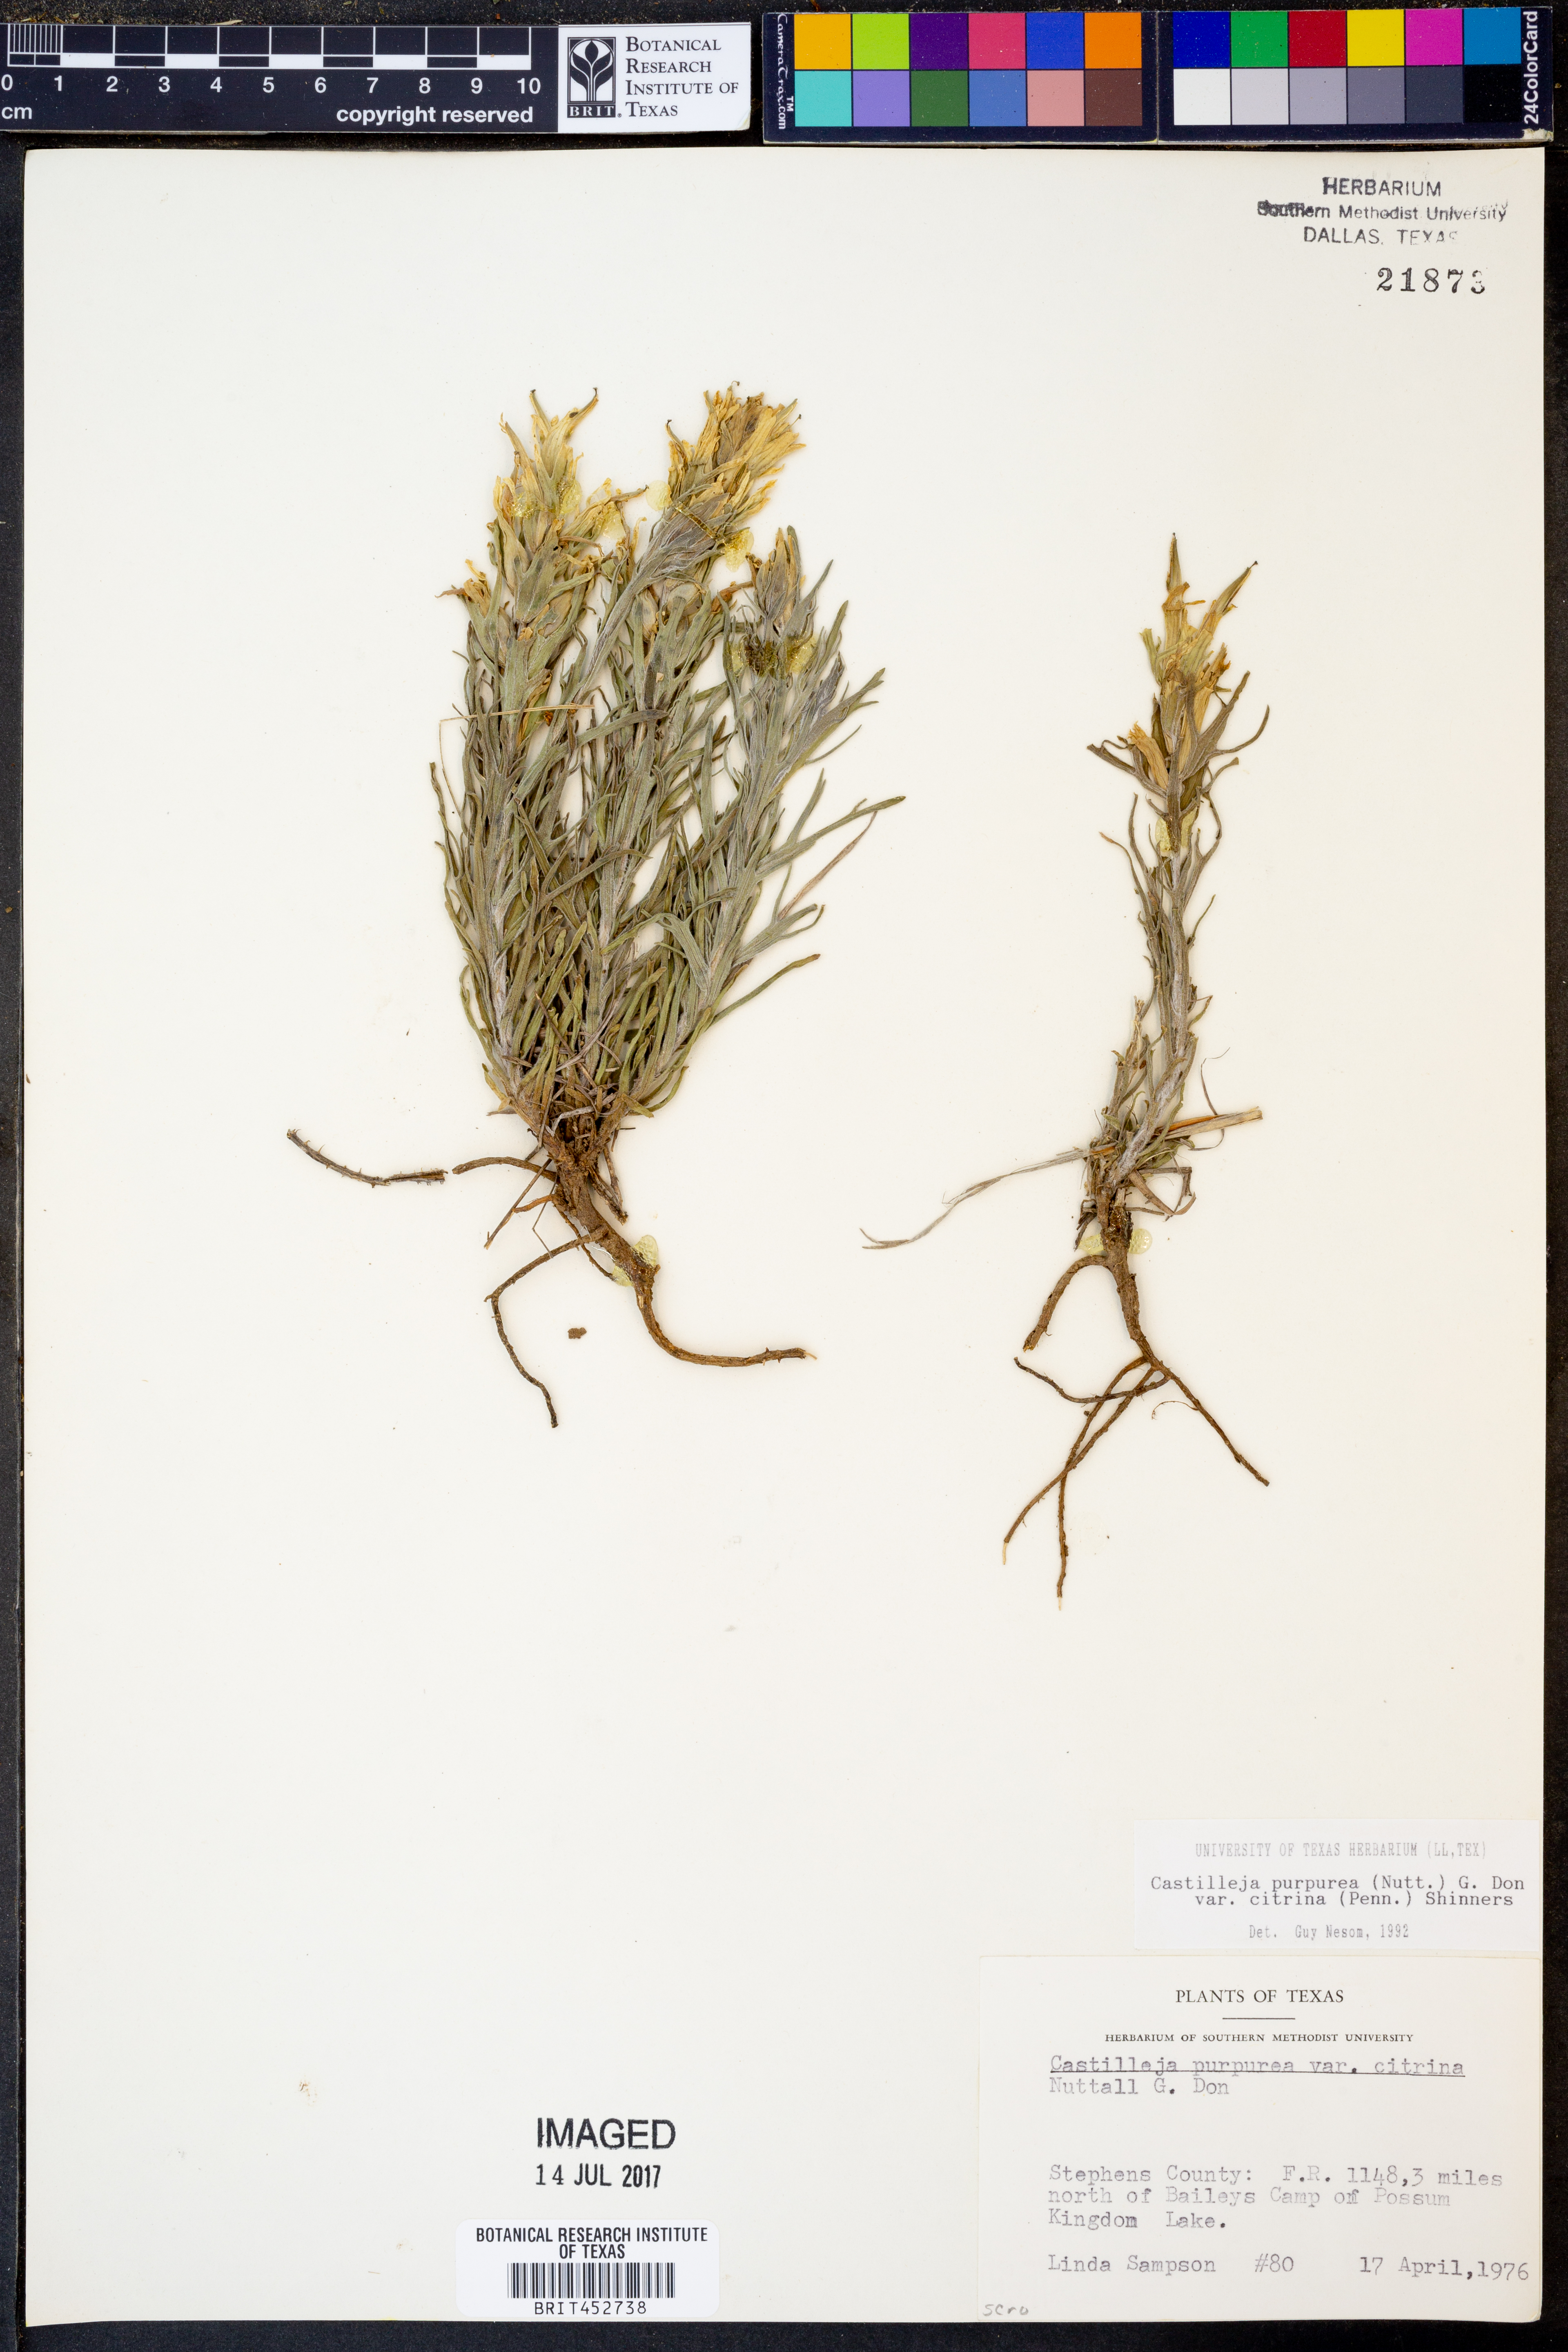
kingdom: Plantae
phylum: Tracheophyta
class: Magnoliopsida
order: Lamiales
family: Orobanchaceae
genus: Castilleja
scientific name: Castilleja citrina
